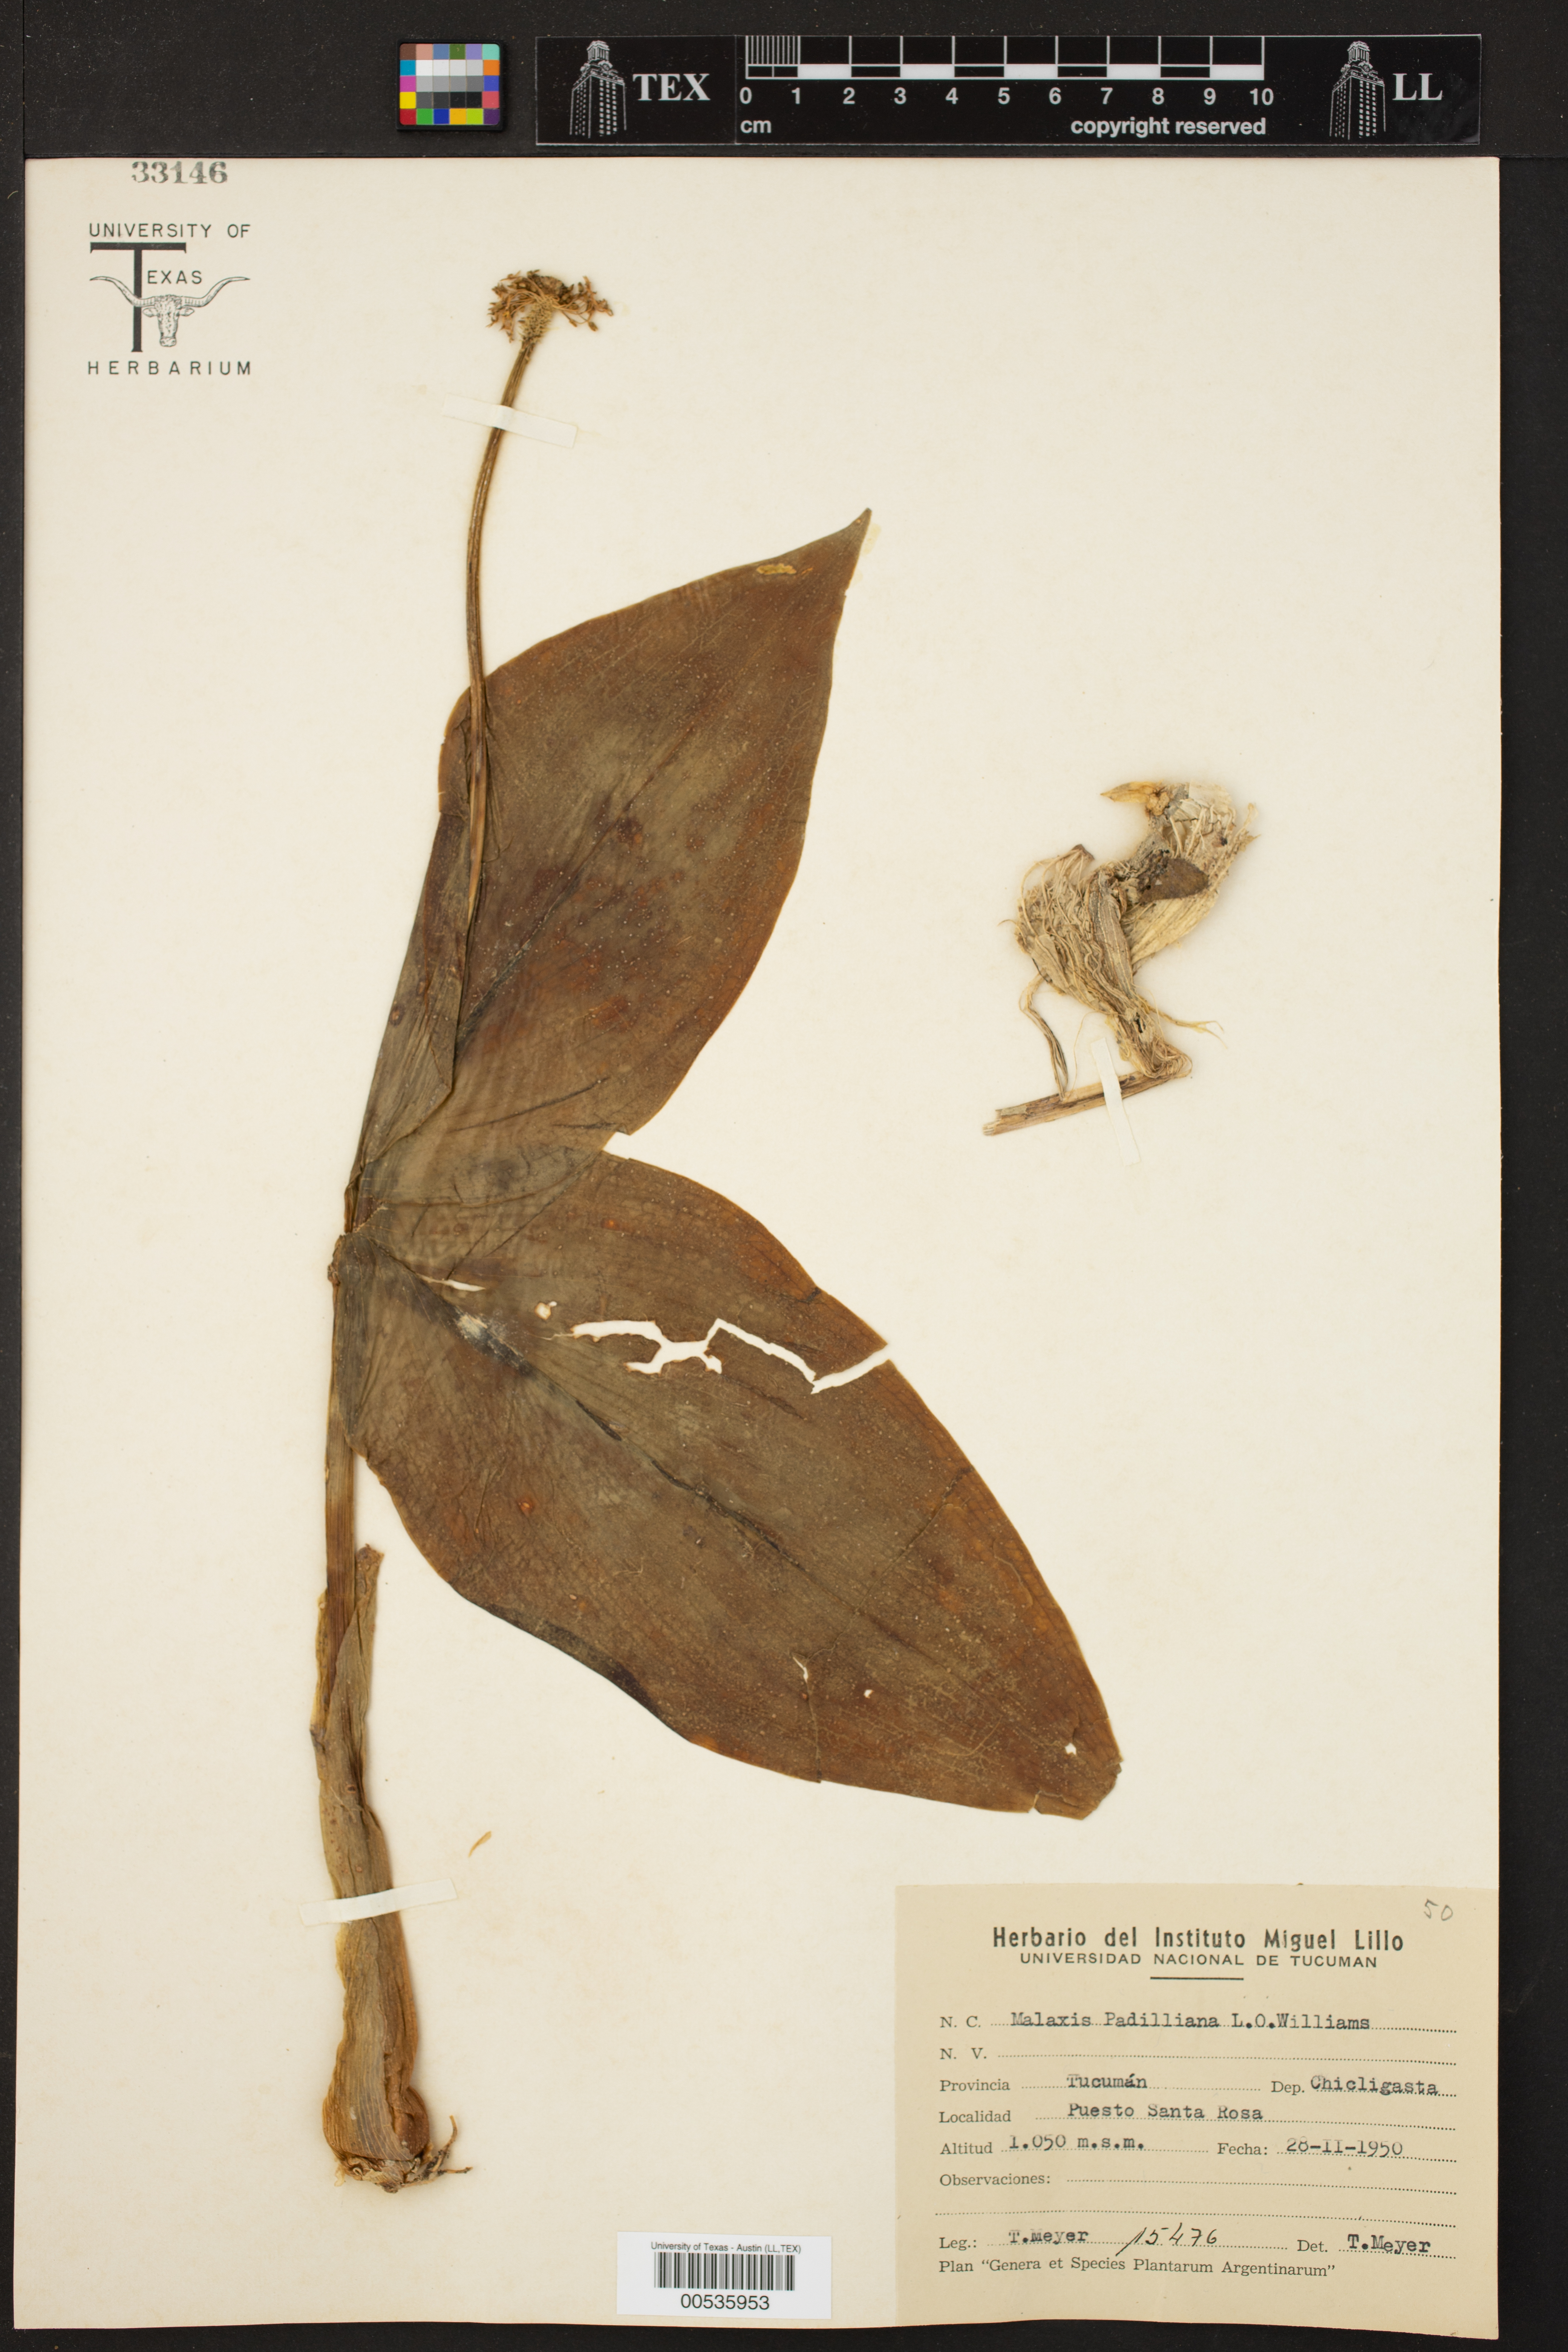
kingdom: Plantae
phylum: Tracheophyta
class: Liliopsida
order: Asparagales
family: Orchidaceae
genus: Malaxis
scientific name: Malaxis padilliana
